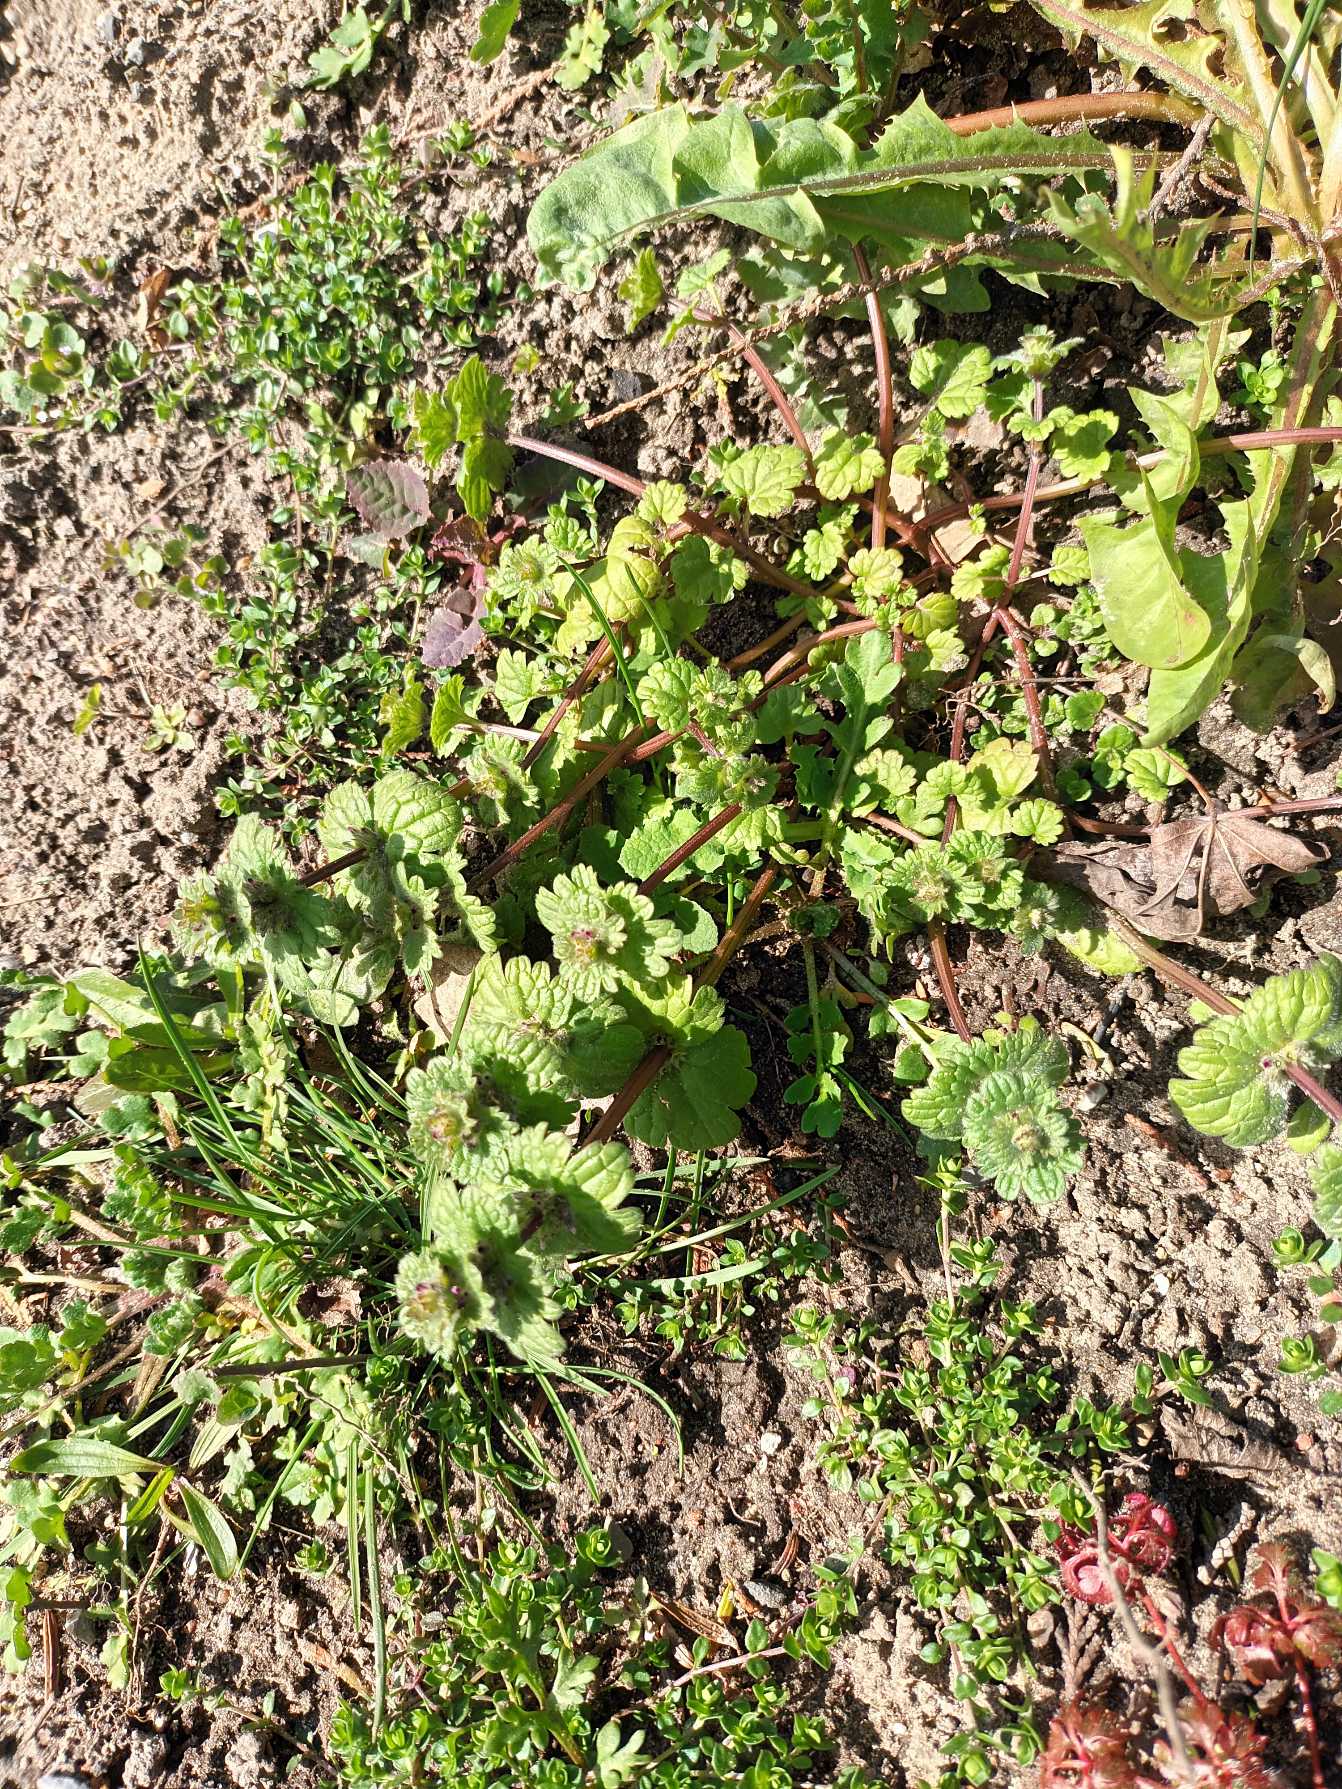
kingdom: Plantae
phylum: Tracheophyta
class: Magnoliopsida
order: Lamiales
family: Lamiaceae
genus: Lamium
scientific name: Lamium amplexicaule
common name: Liden tvetand
